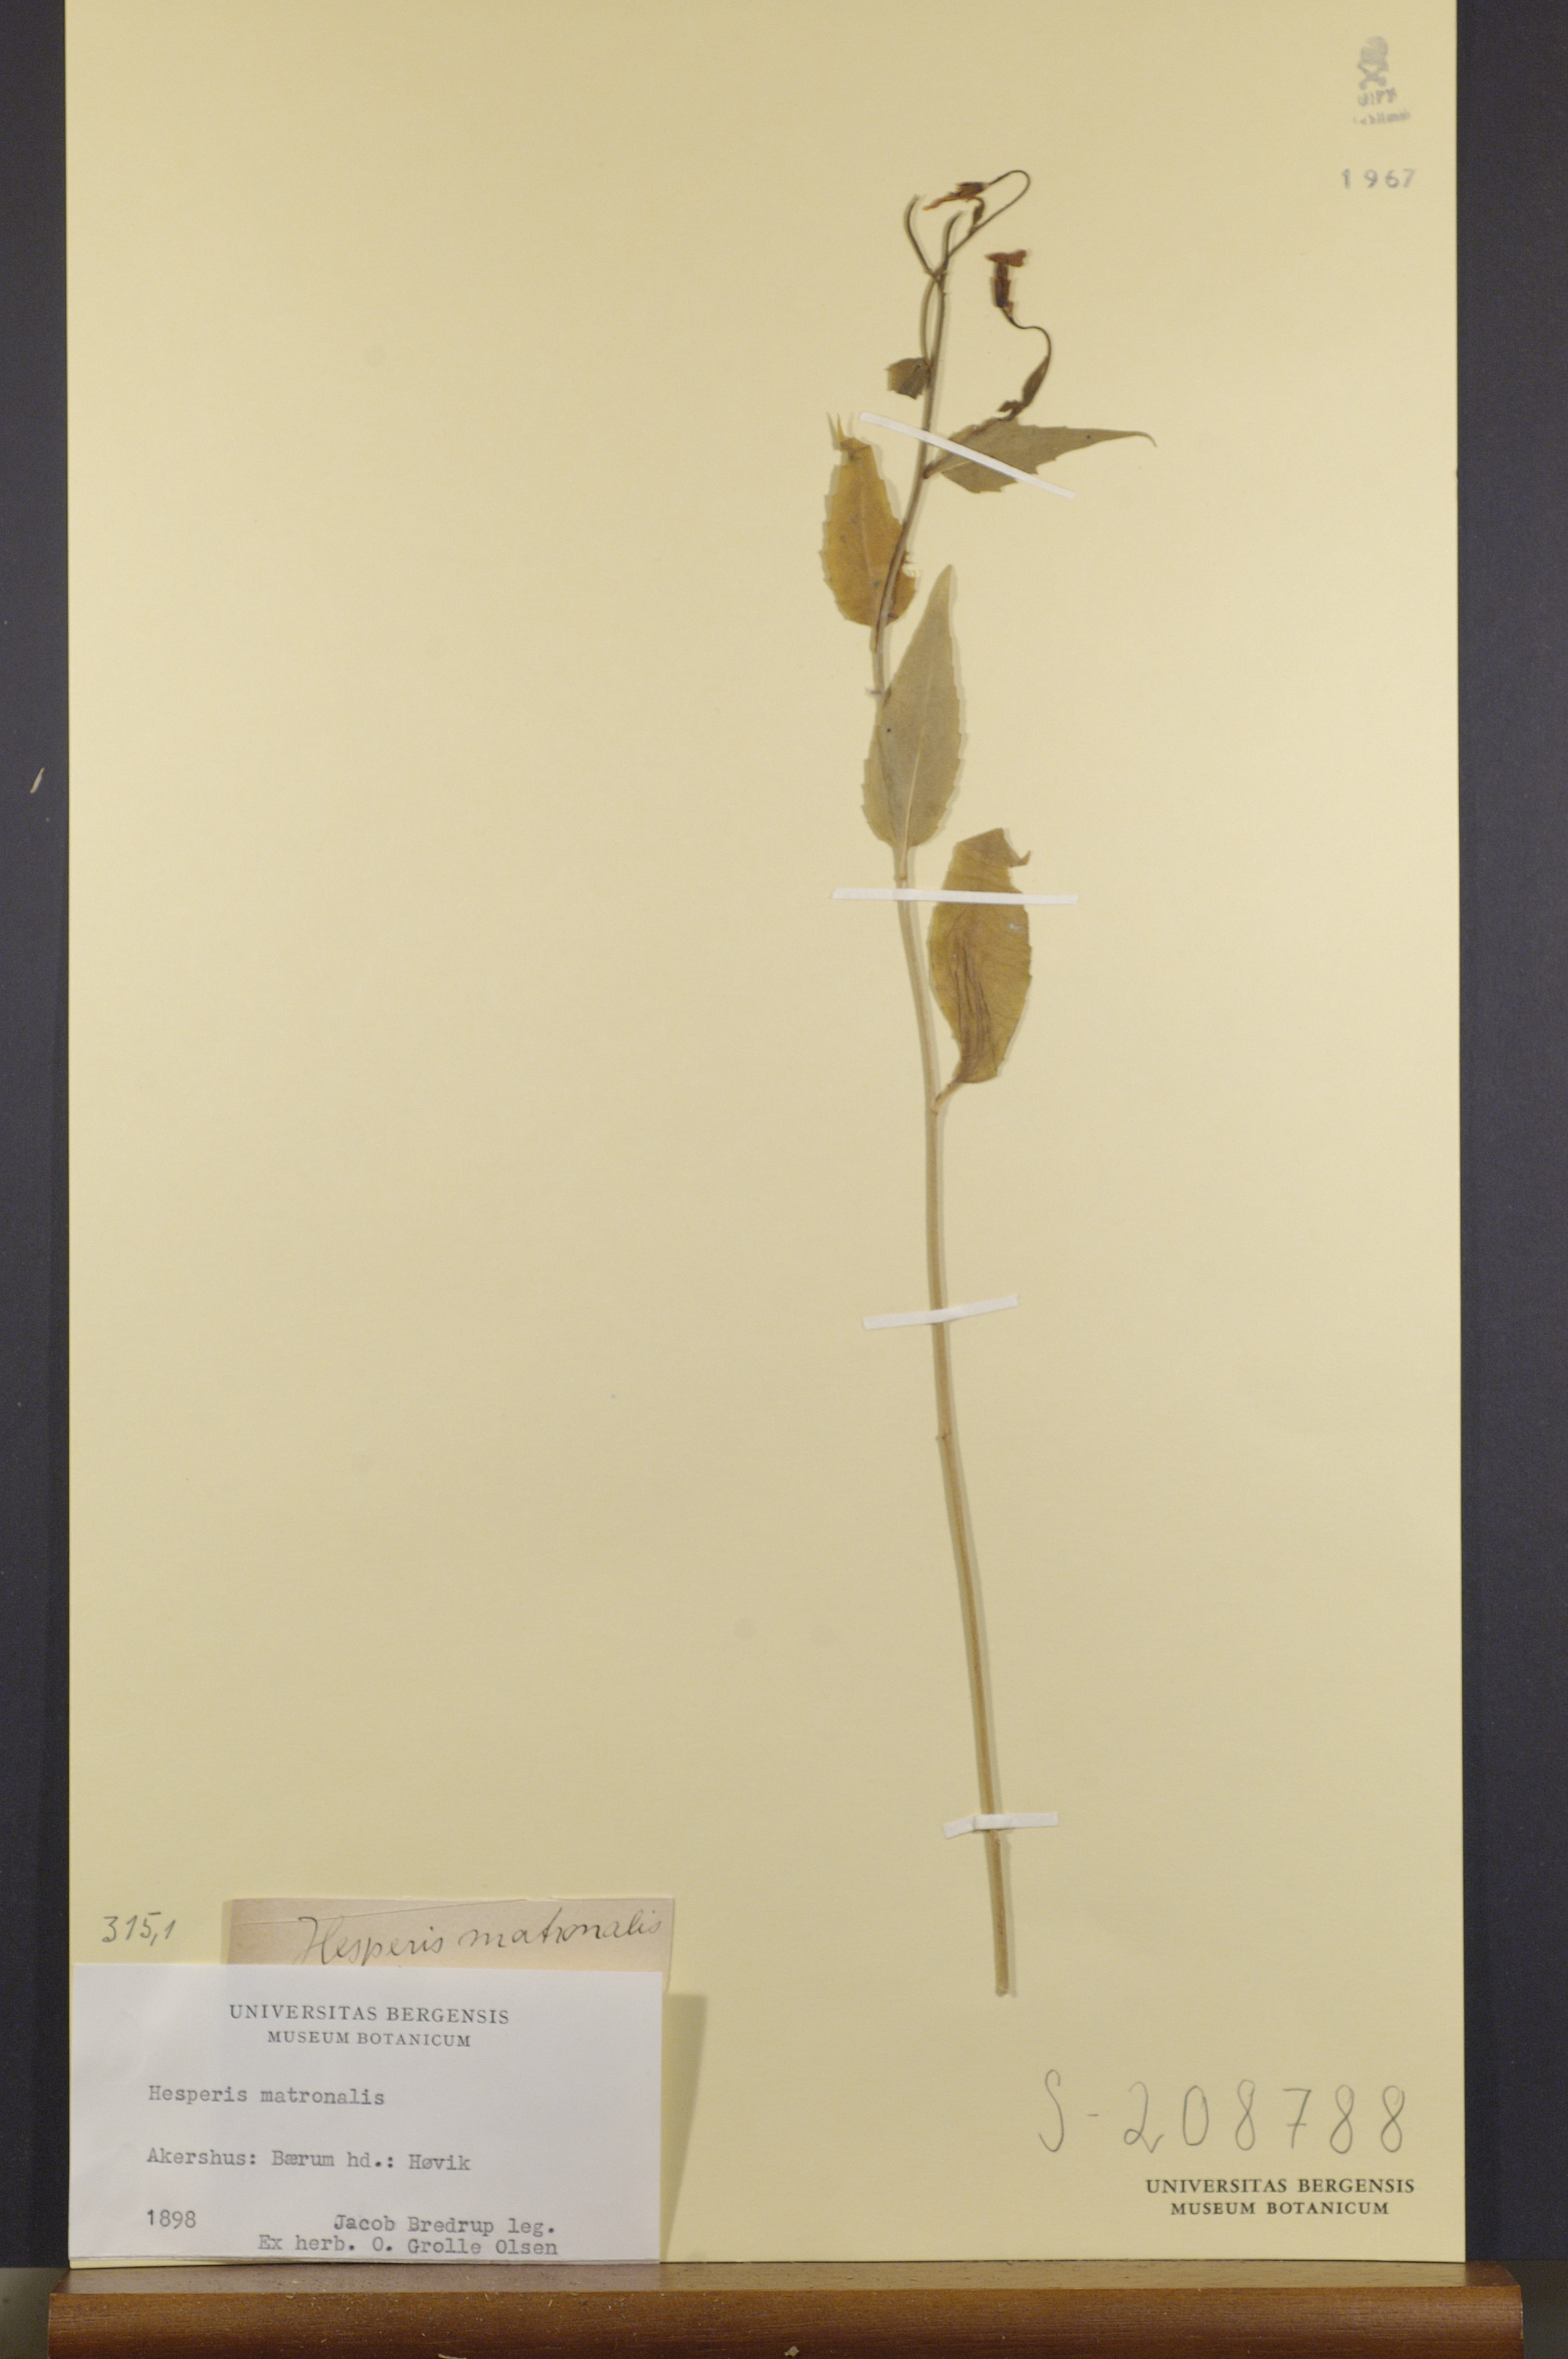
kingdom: Plantae
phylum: Tracheophyta
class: Magnoliopsida
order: Brassicales
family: Brassicaceae
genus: Hesperis
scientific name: Hesperis matronalis
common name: Dame's-violet
